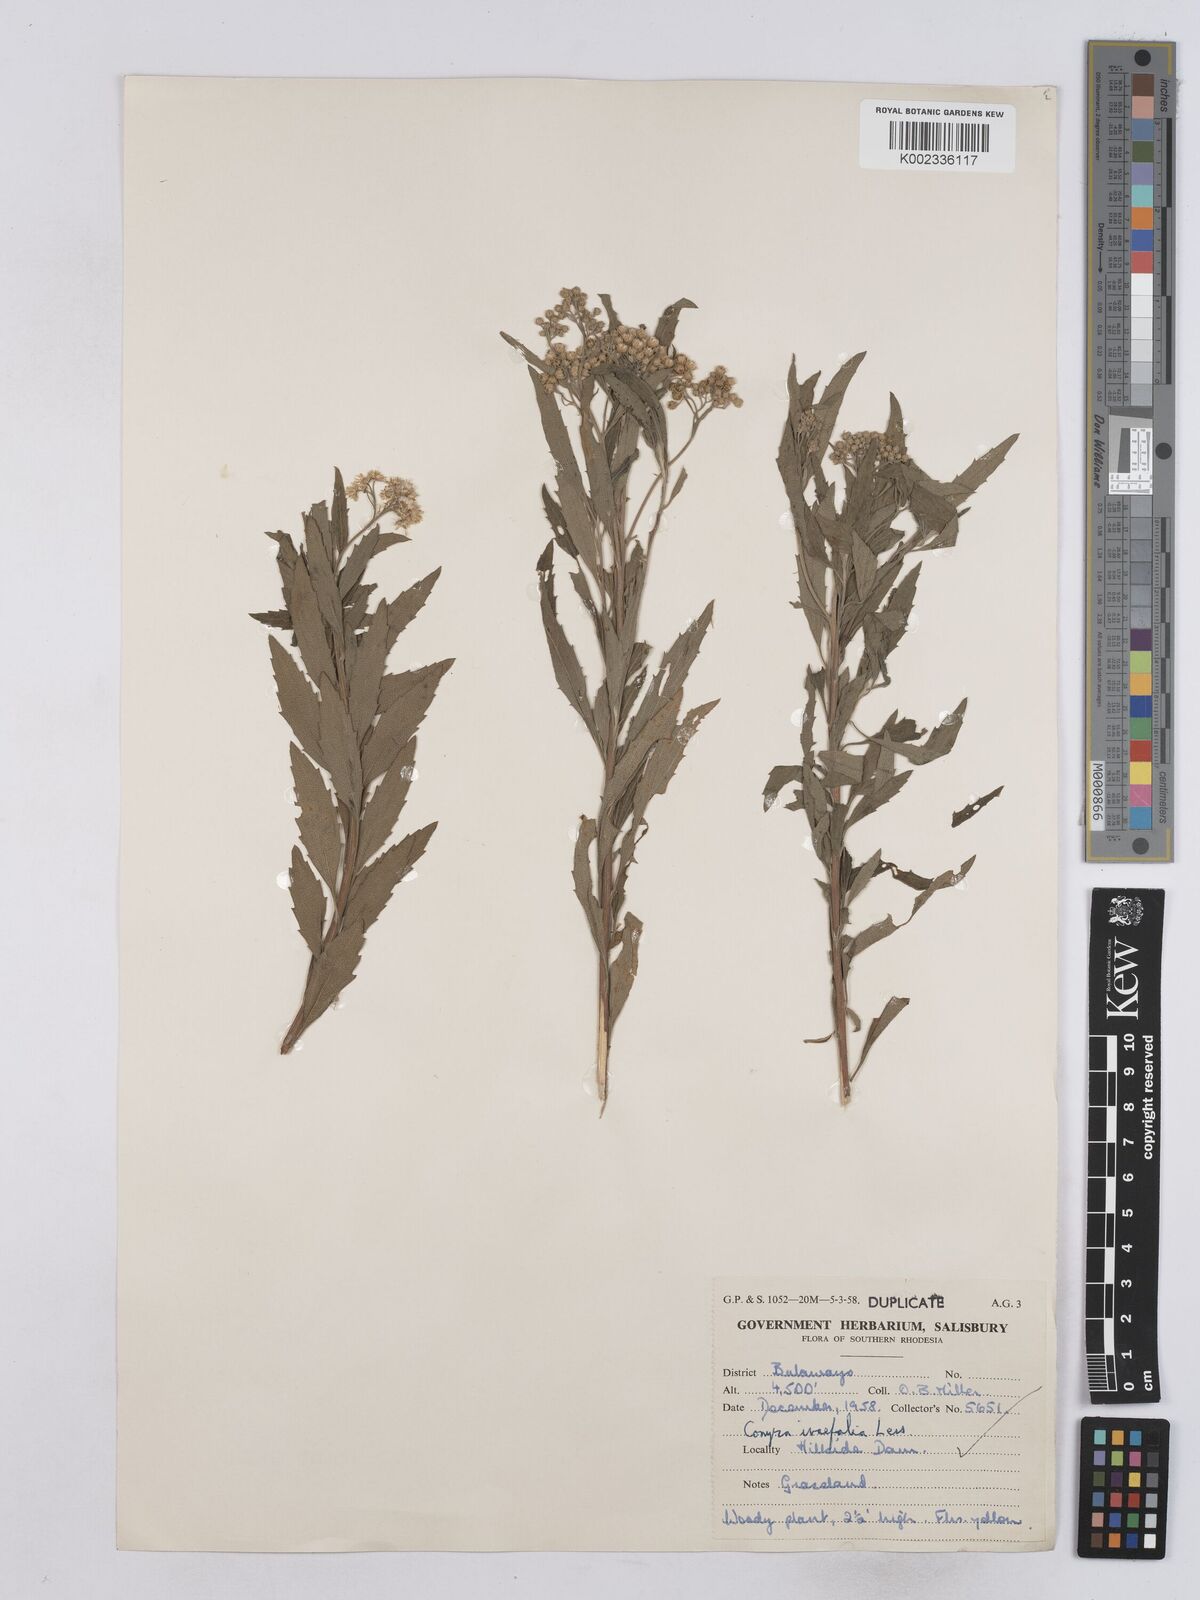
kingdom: Plantae
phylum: Tracheophyta
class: Magnoliopsida
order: Asterales
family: Asteraceae
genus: Nidorella
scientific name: Nidorella ivifolia
